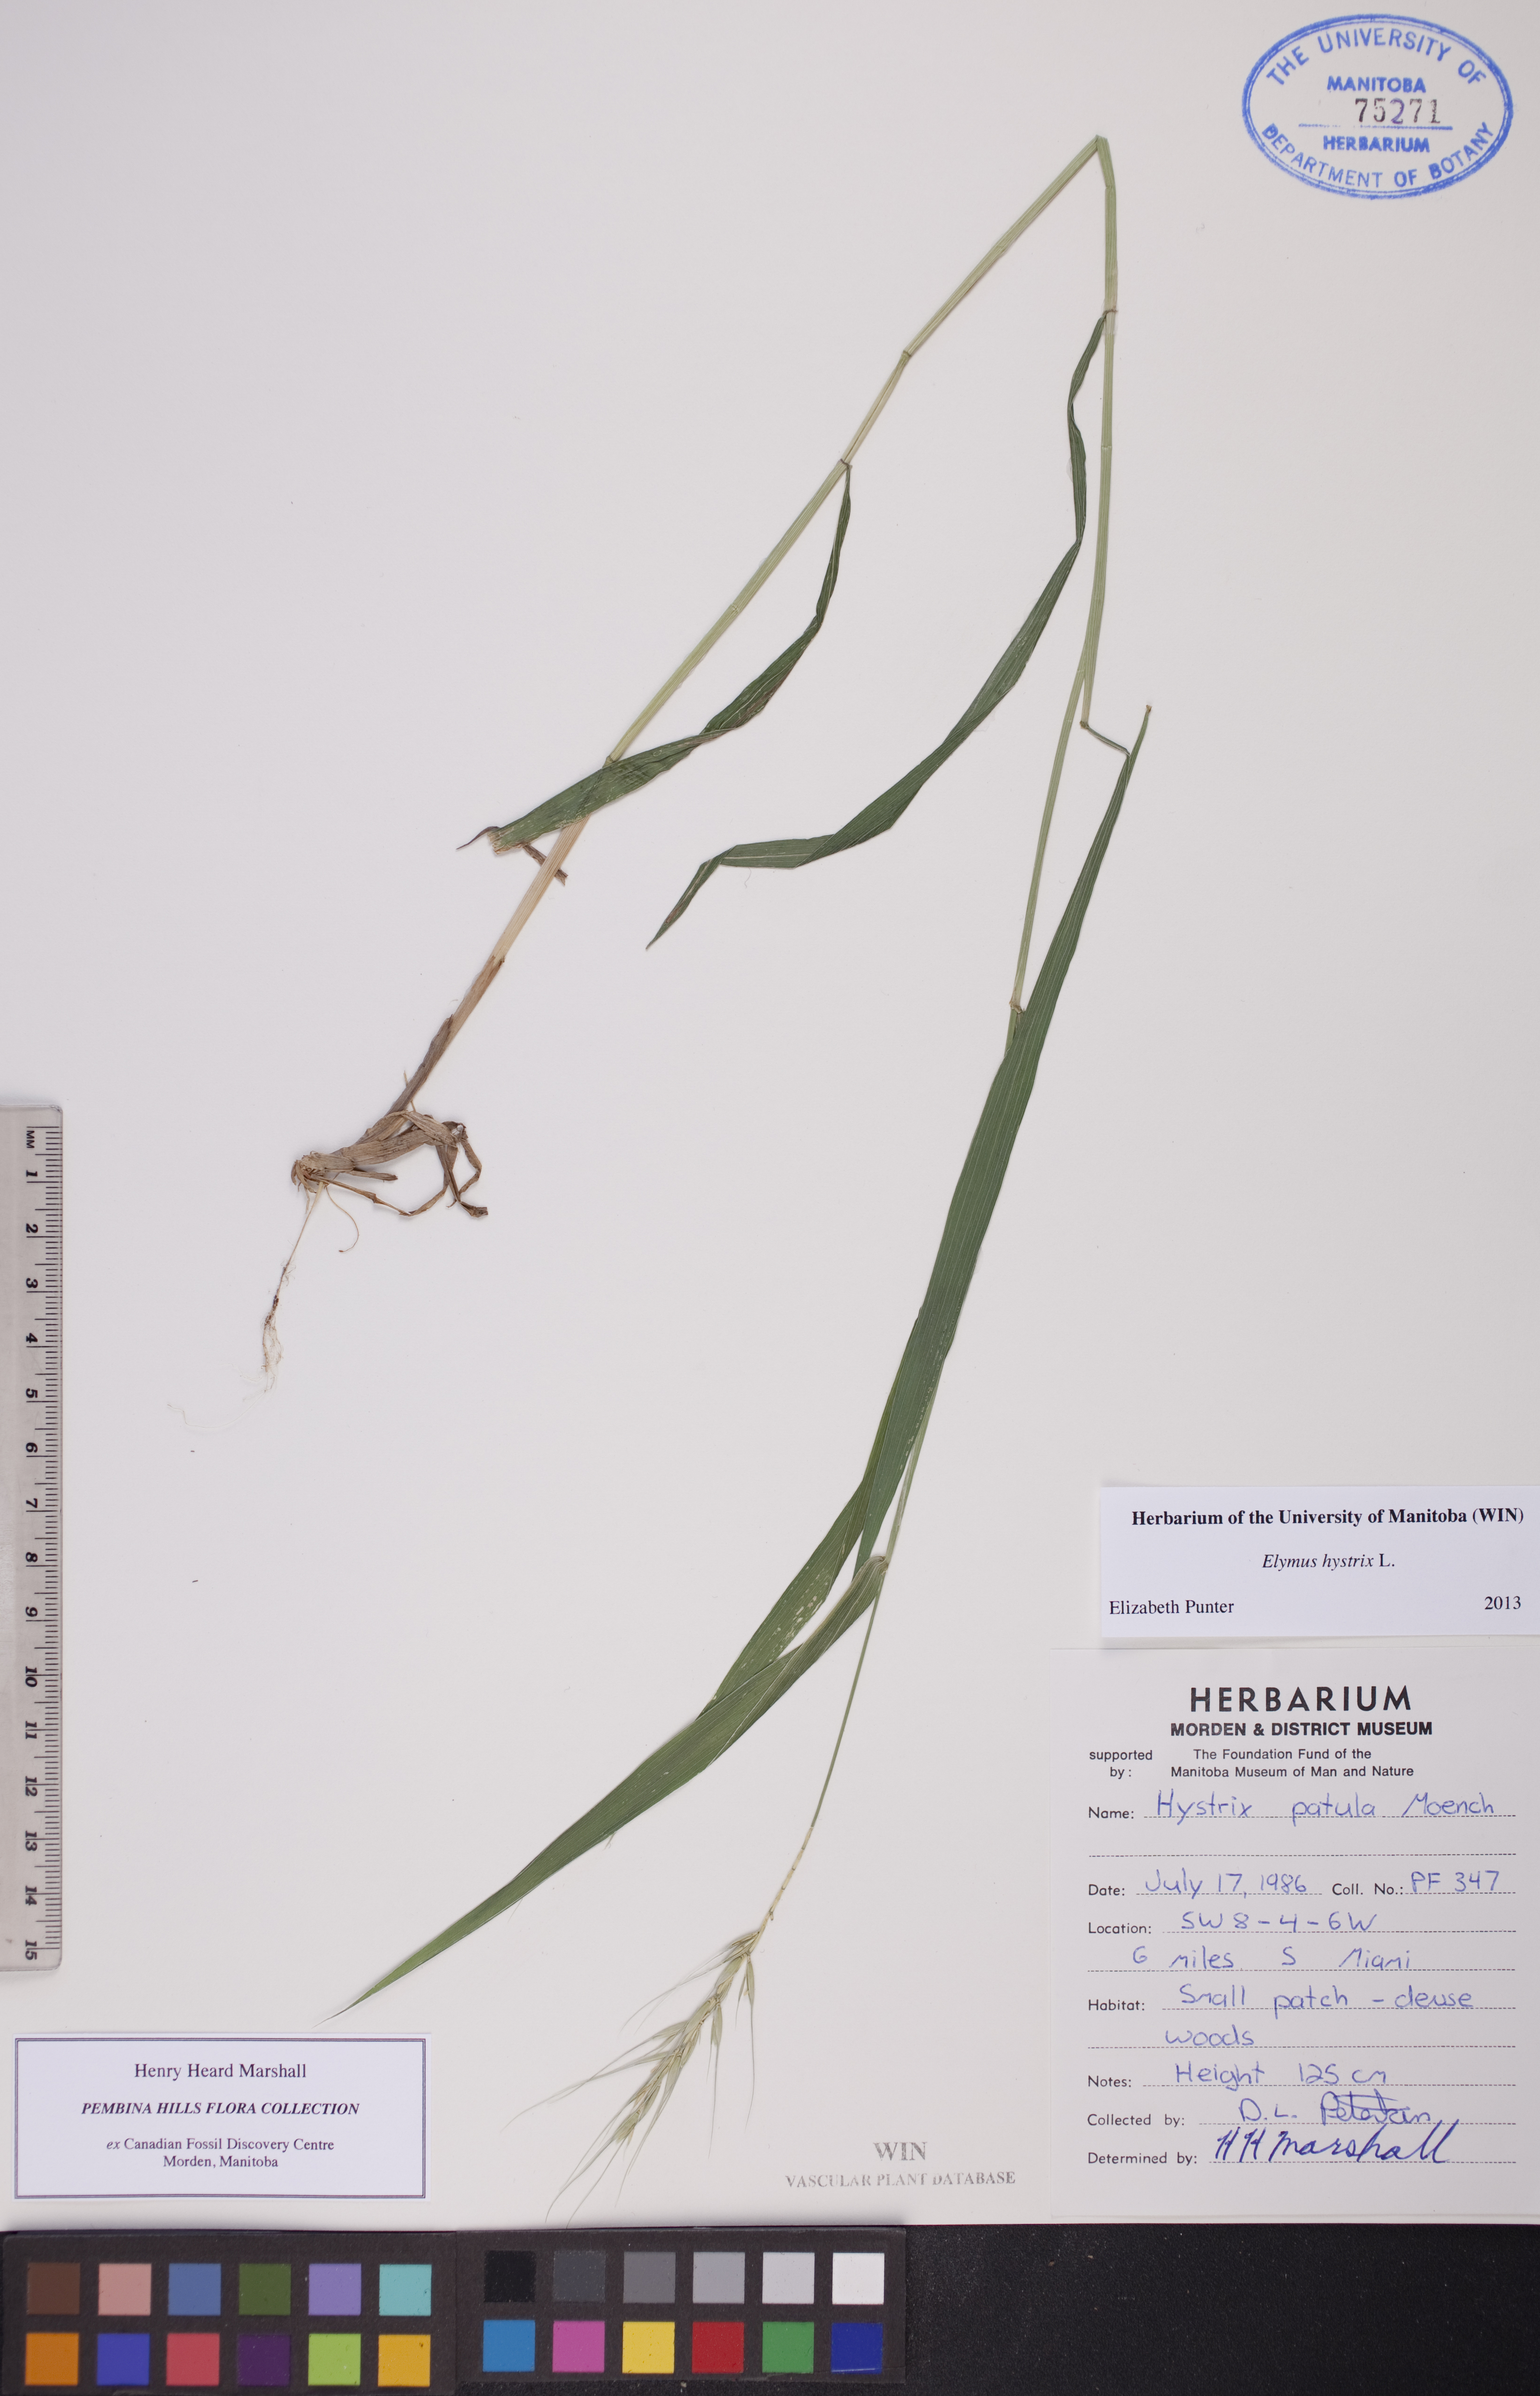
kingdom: Plantae
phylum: Tracheophyta
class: Liliopsida
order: Poales
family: Poaceae
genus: Elymus
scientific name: Elymus hystrix
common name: Bottlebrush grass
